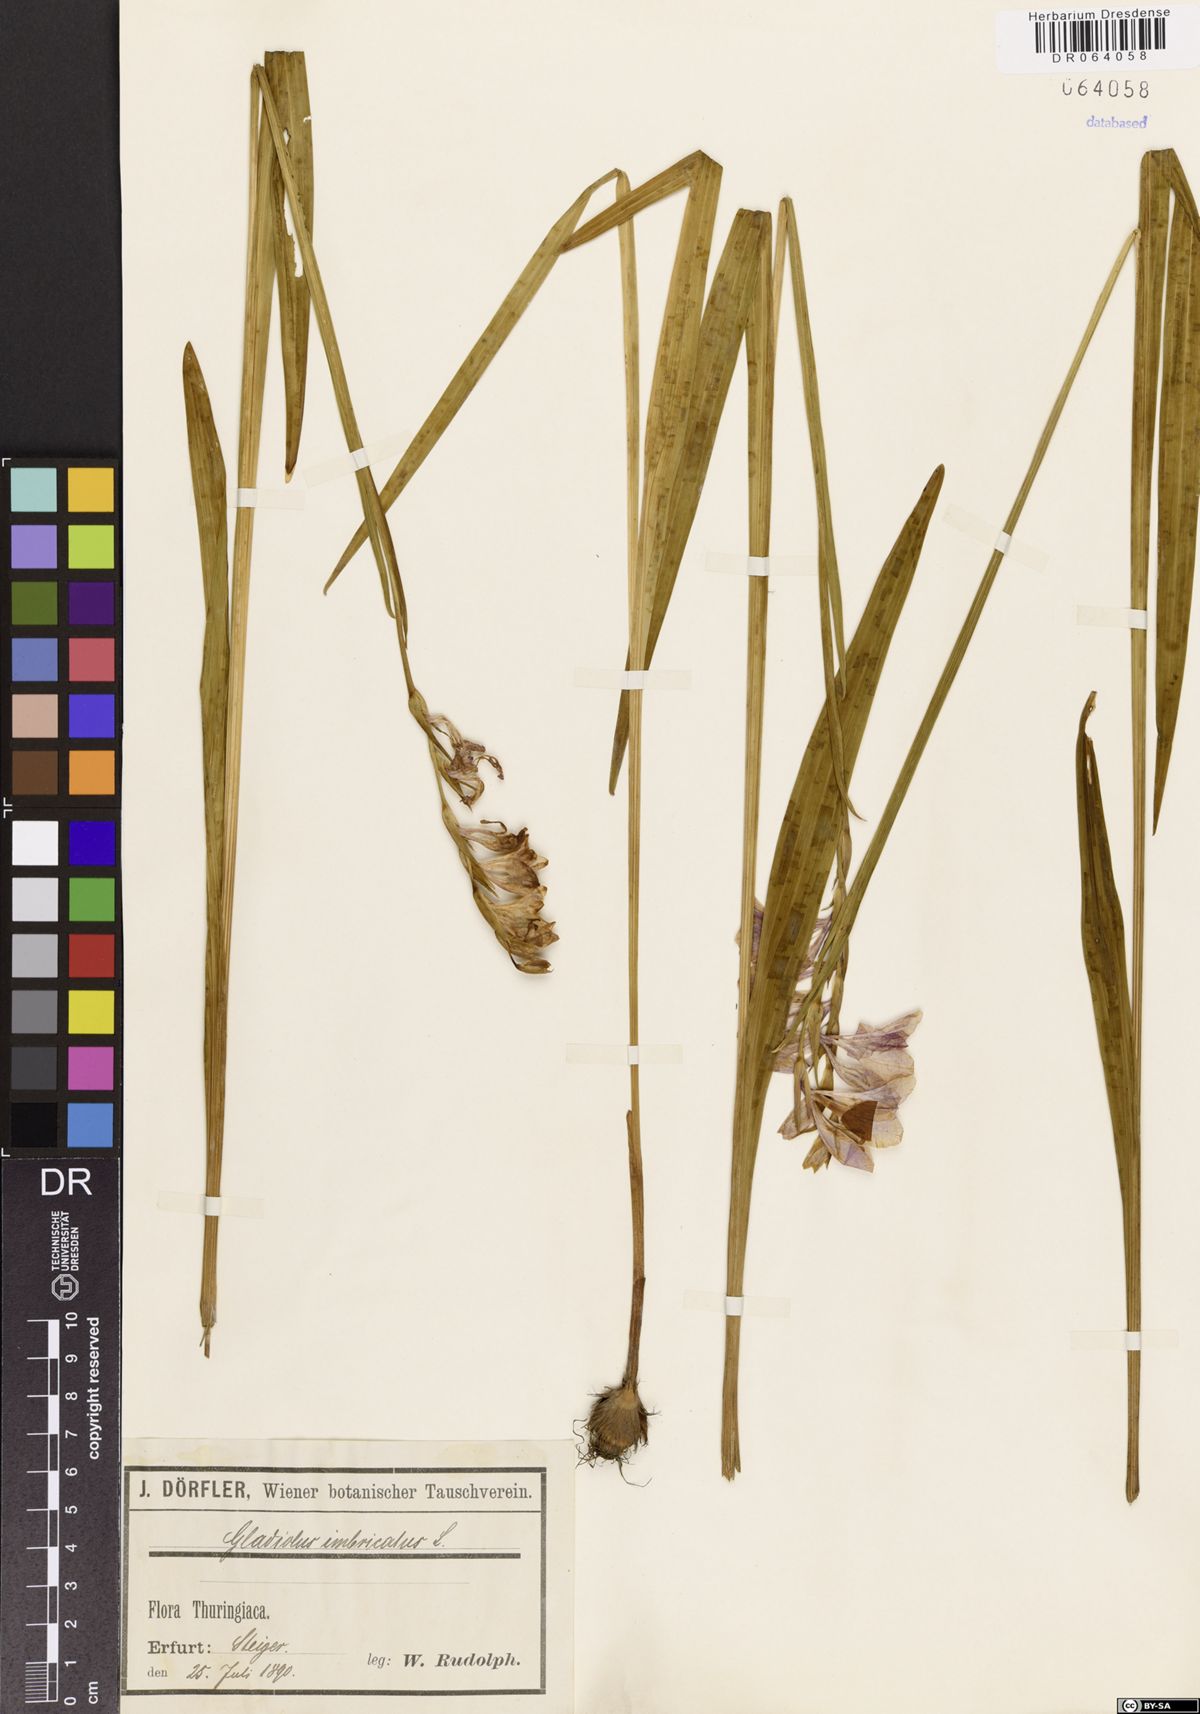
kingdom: Plantae
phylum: Tracheophyta
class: Liliopsida
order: Asparagales
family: Iridaceae
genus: Gladiolus
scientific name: Gladiolus imbricatus
